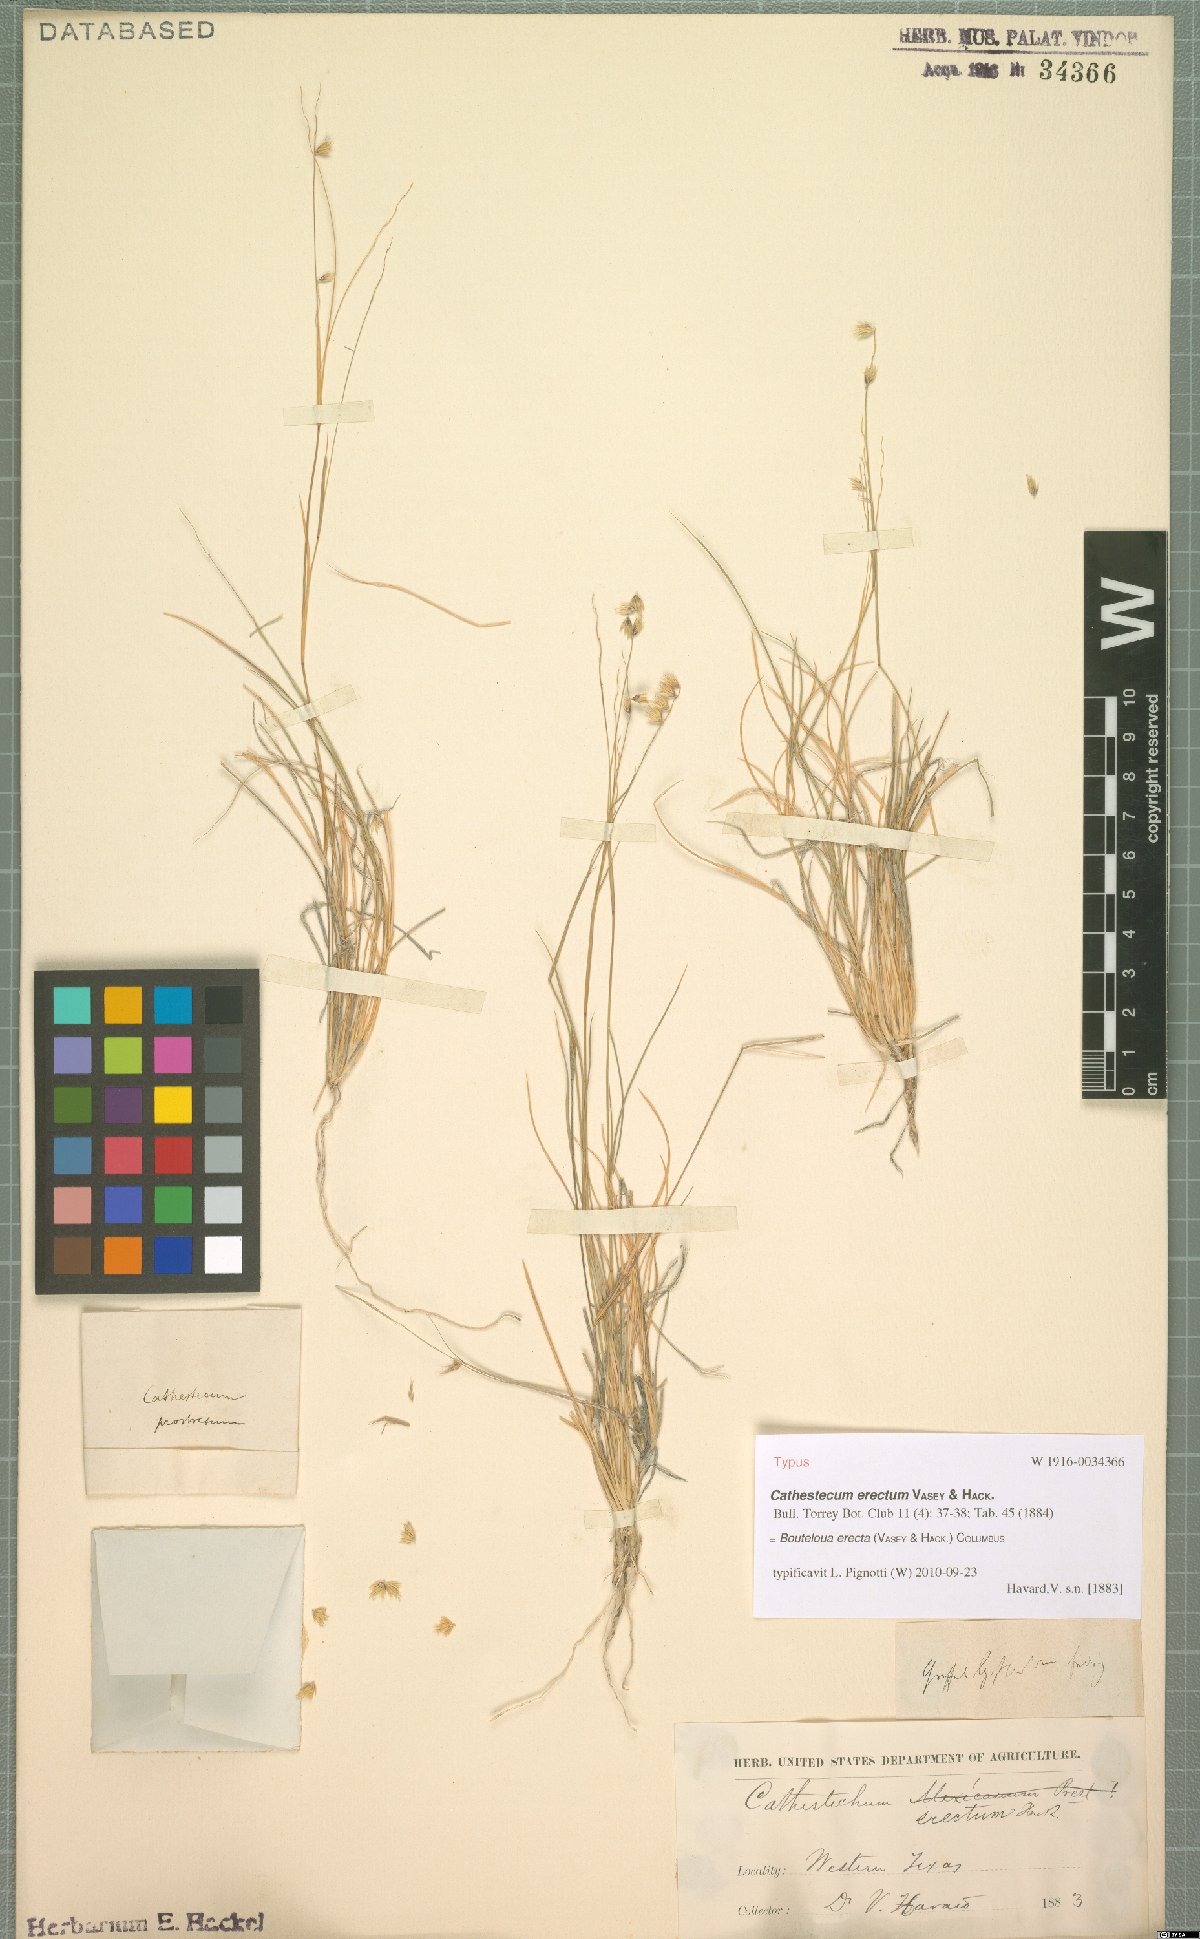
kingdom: Plantae
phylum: Tracheophyta
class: Liliopsida
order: Poales
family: Poaceae
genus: Bouteloua
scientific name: Bouteloua erecta
